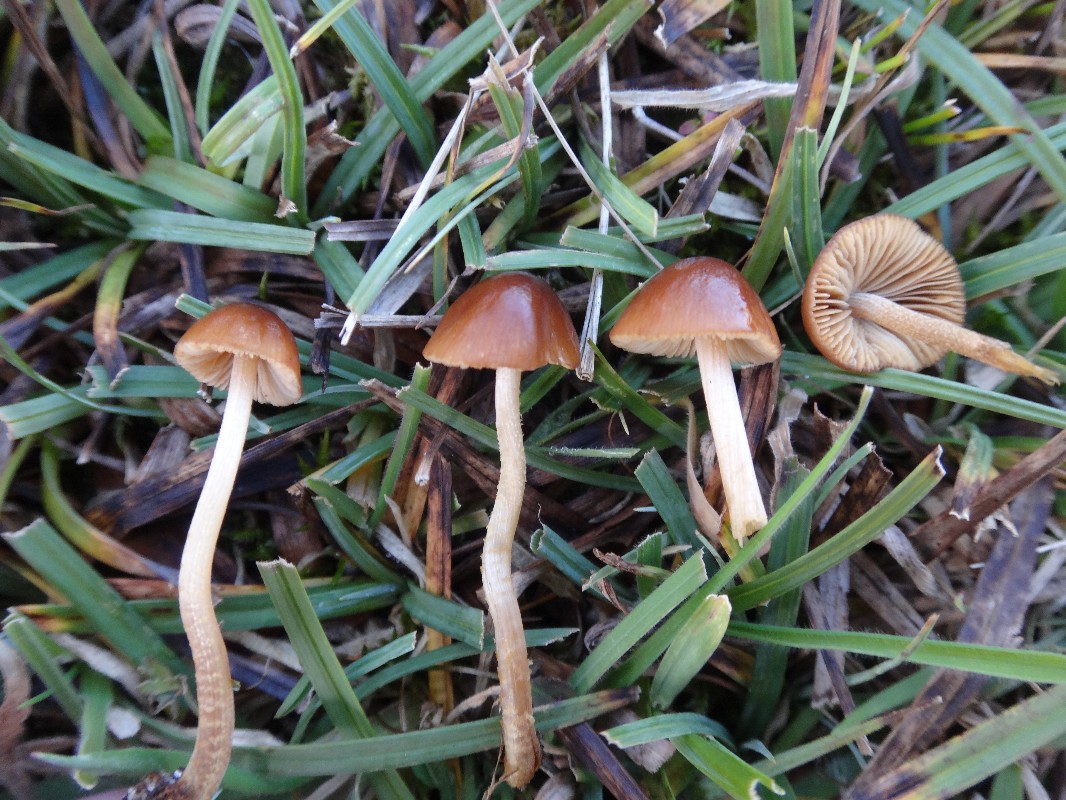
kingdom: Fungi
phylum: Basidiomycota
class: Agaricomycetes
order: Agaricales
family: Bolbitiaceae
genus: Conocybe
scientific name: Conocybe rickeniana
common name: kastaniebrun keglehat
